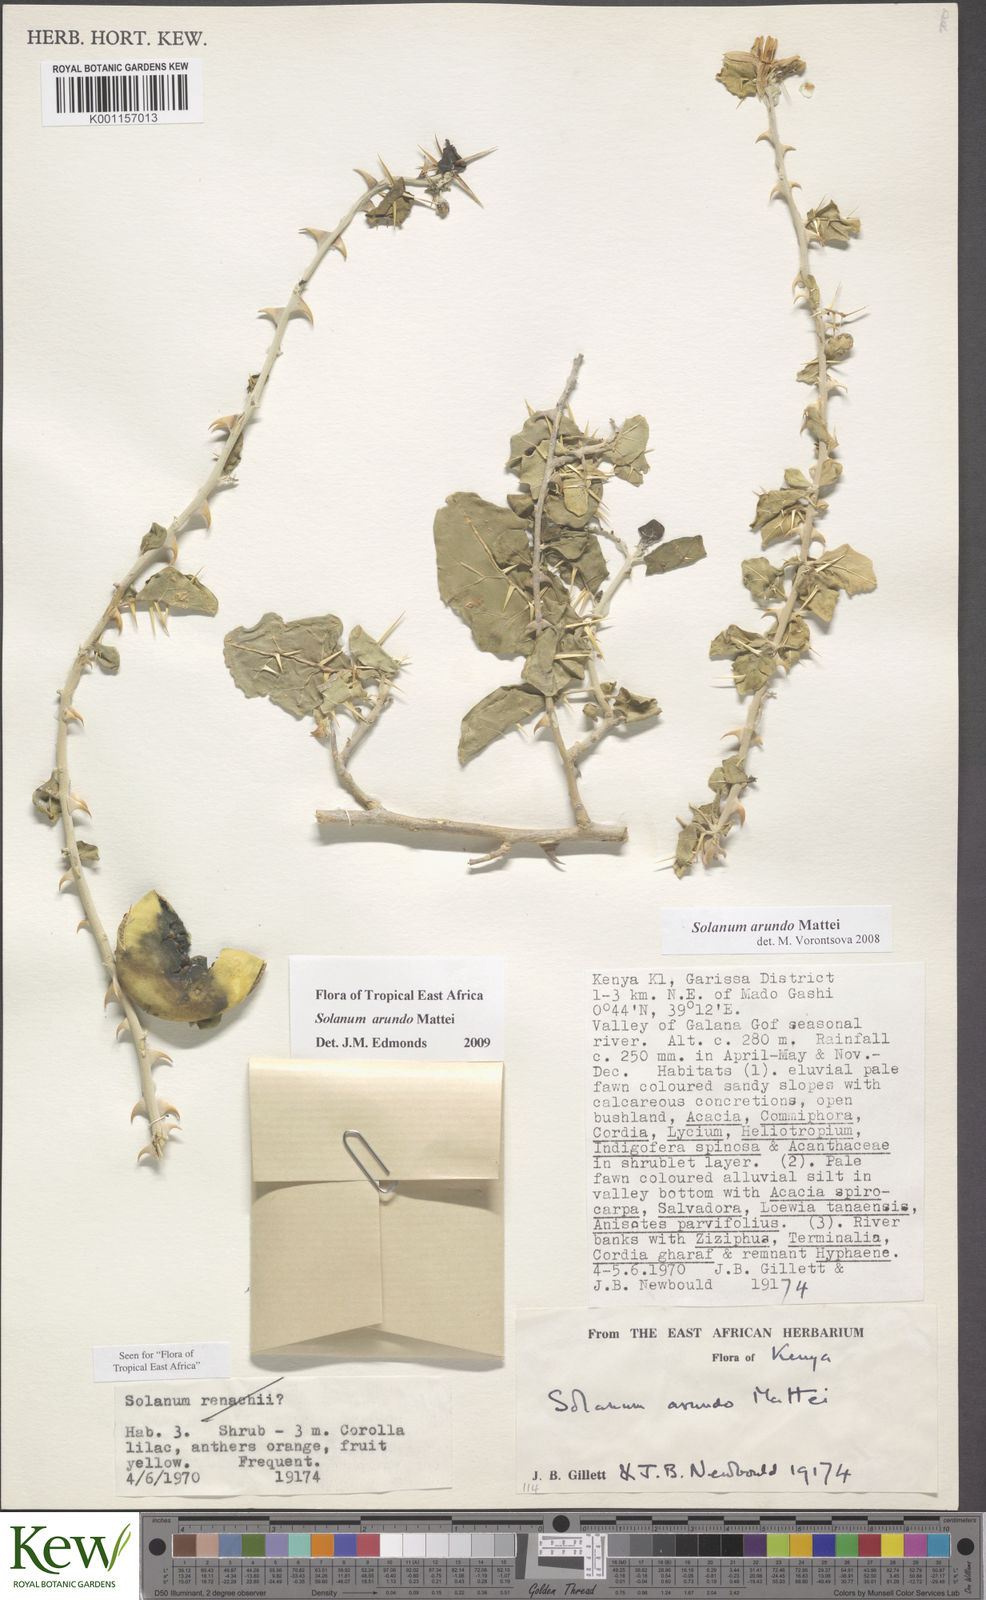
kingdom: Plantae
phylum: Tracheophyta
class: Magnoliopsida
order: Solanales
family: Solanaceae
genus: Solanum
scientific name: Solanum arundo
